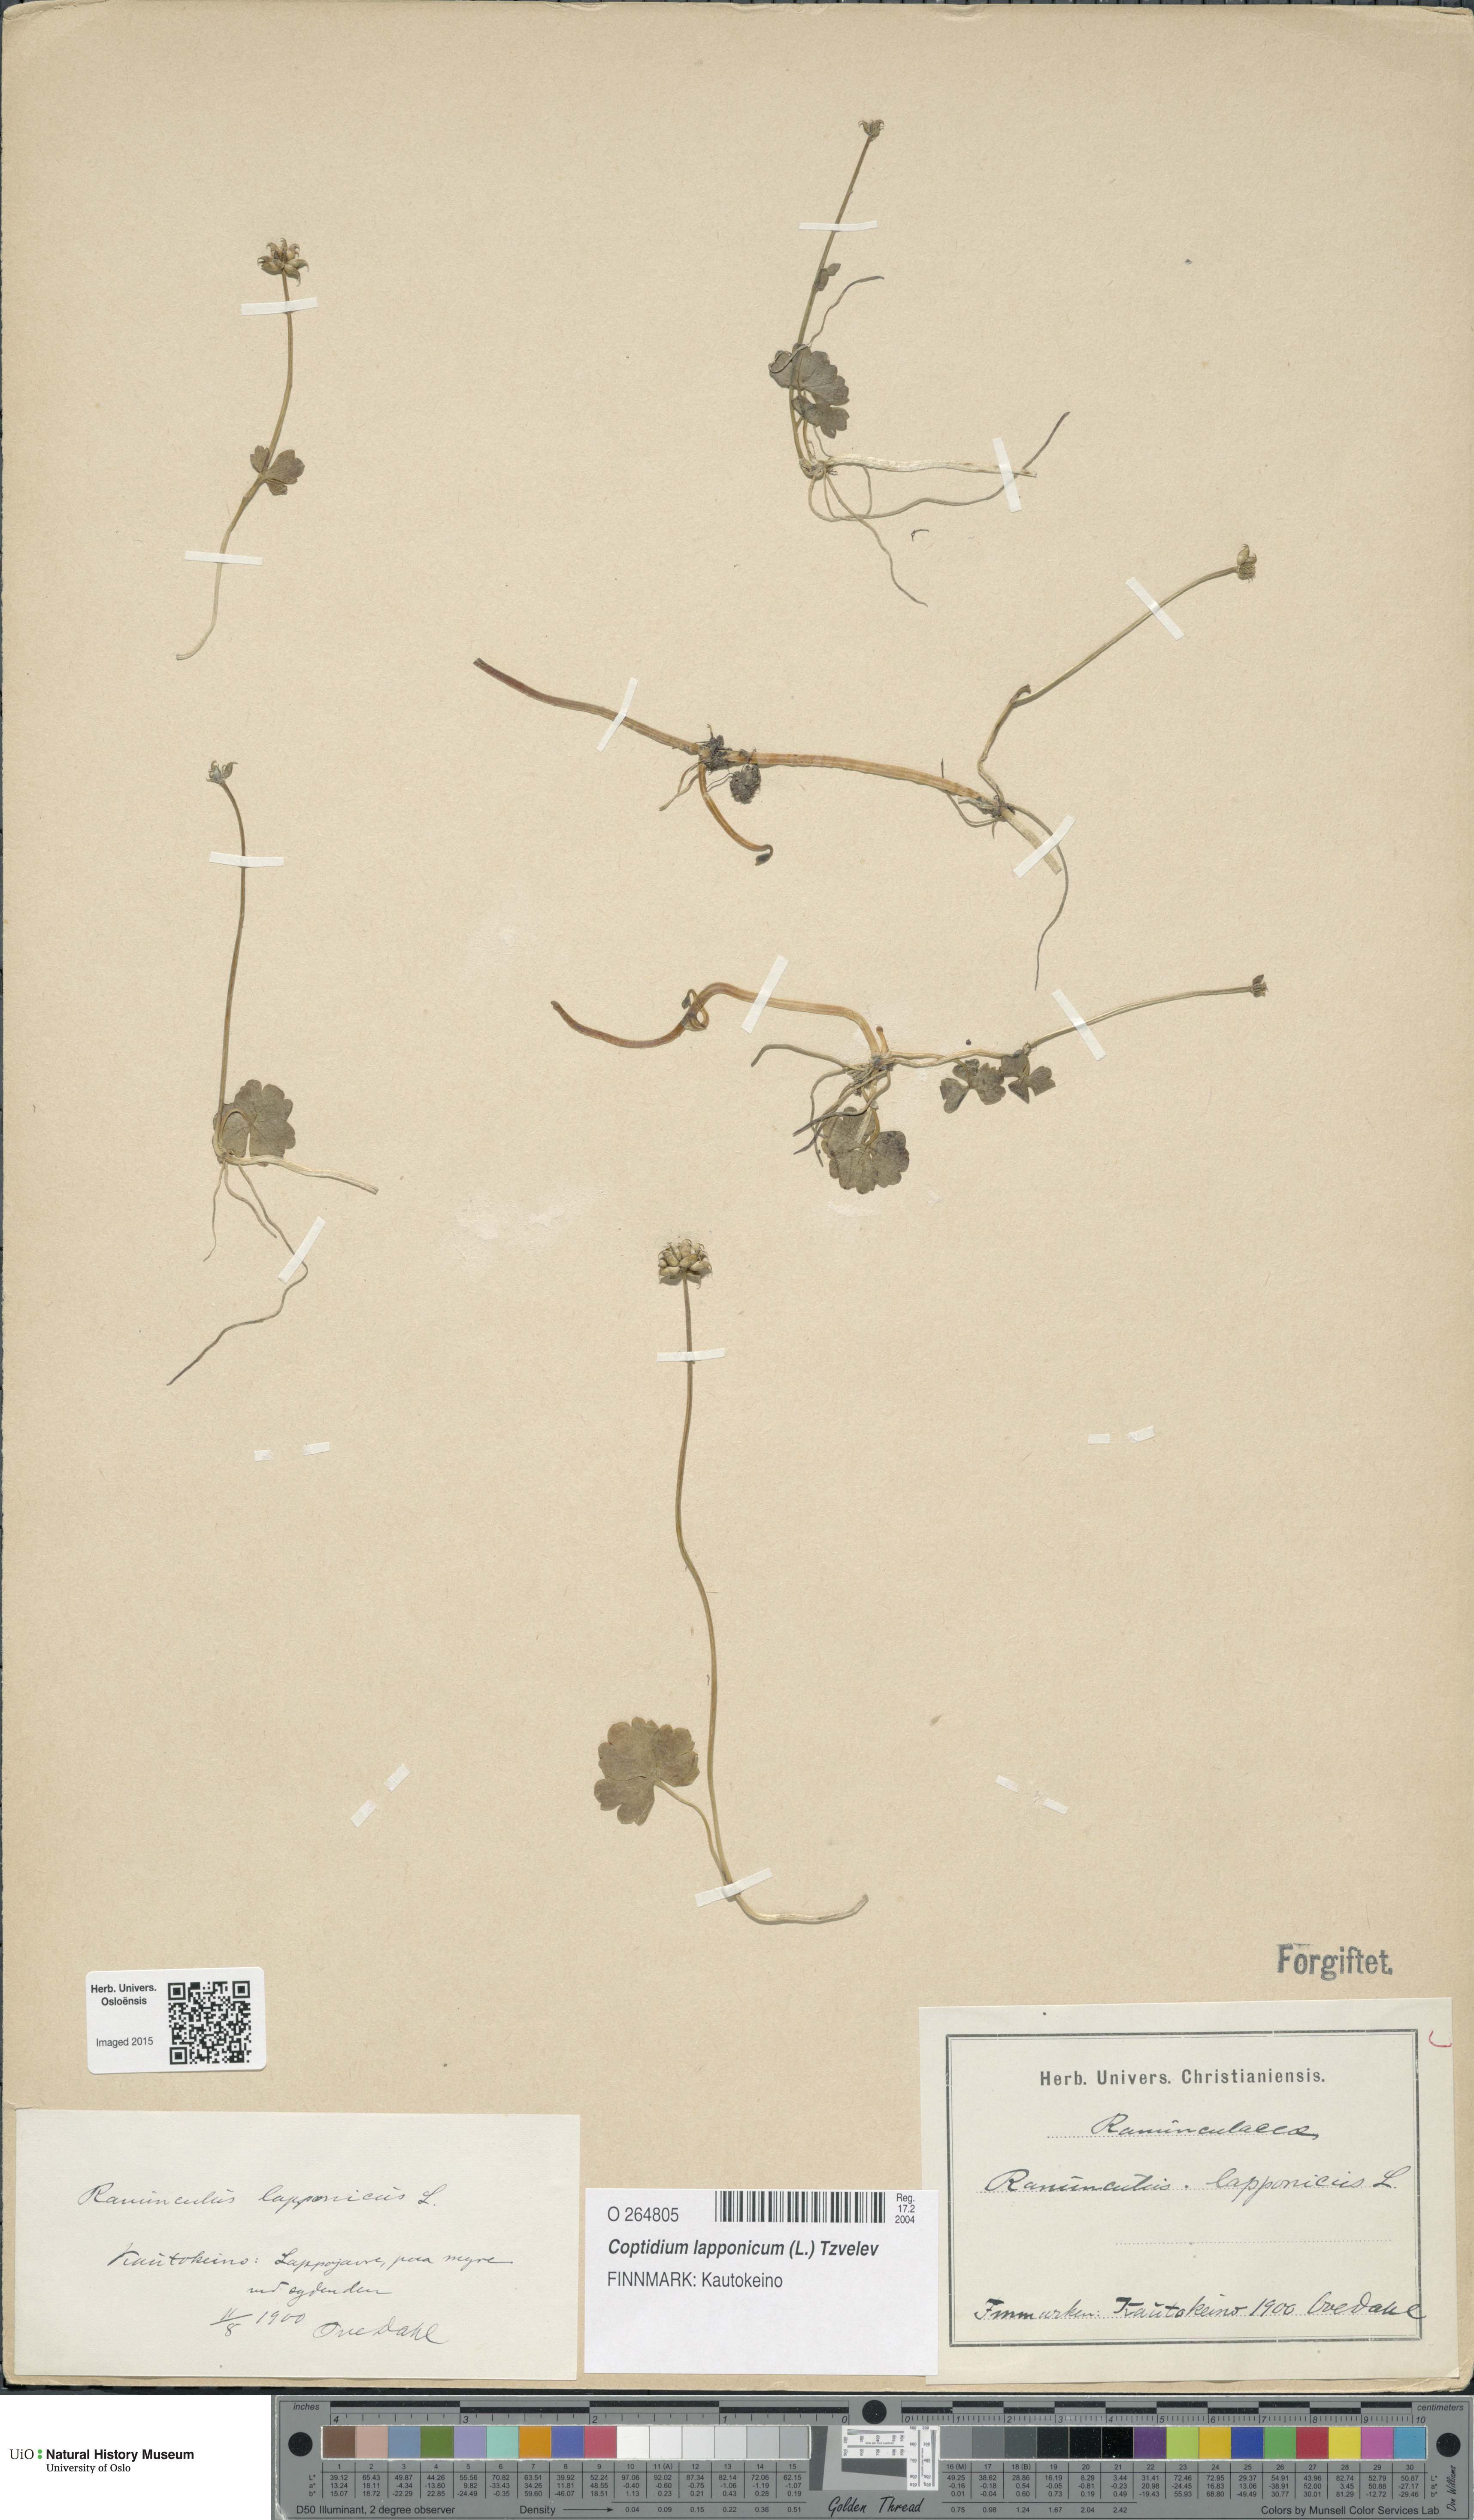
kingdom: Plantae
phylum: Tracheophyta
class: Magnoliopsida
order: Ranunculales
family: Ranunculaceae
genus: Coptidium
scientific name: Coptidium lapponicum
